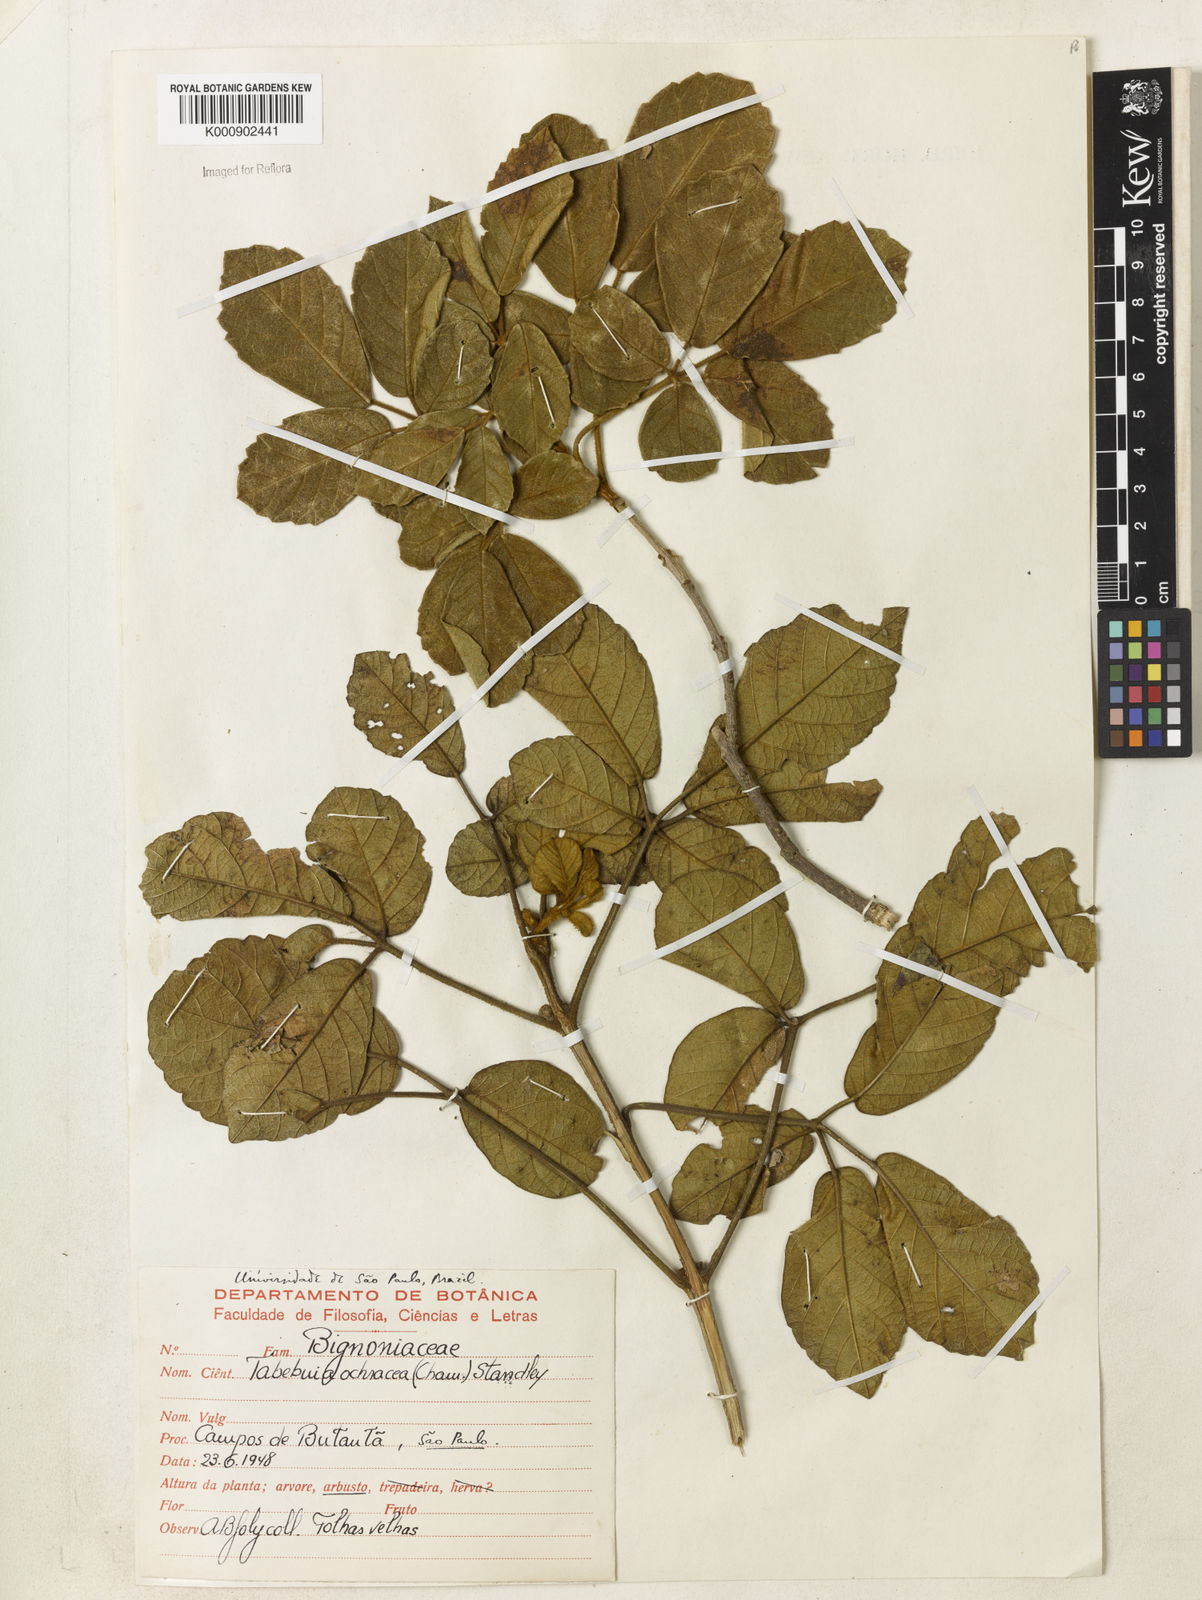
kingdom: Plantae
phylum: Tracheophyta
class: Magnoliopsida
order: Lamiales
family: Bignoniaceae
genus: Handroanthus
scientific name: Handroanthus ochraceus
